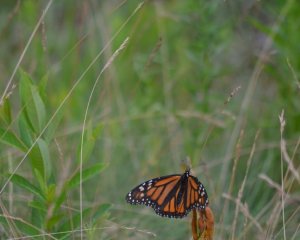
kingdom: Animalia
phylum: Arthropoda
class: Insecta
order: Lepidoptera
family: Nymphalidae
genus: Danaus
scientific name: Danaus plexippus
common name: Monarch
